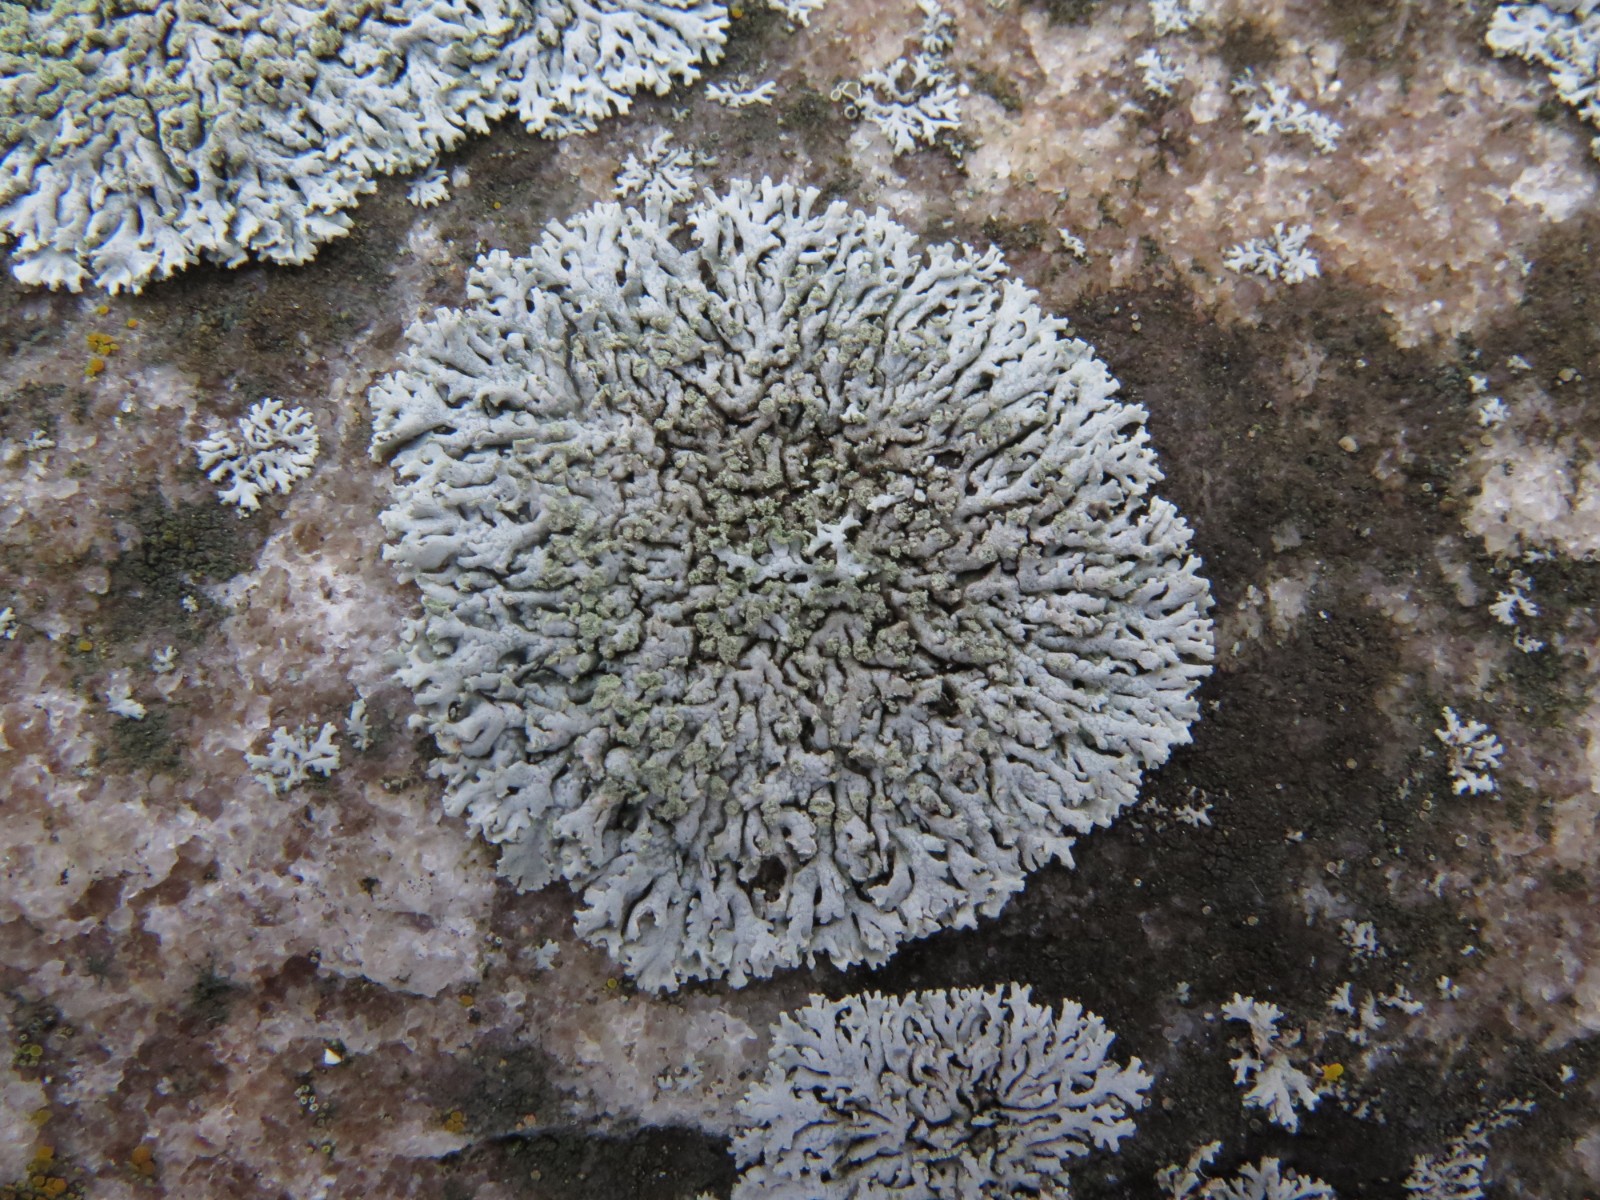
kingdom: Fungi
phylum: Ascomycota
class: Lecanoromycetes
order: Caliciales
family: Physciaceae
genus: Physcia
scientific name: Physcia dubia
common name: fuglestens-rosetlav
